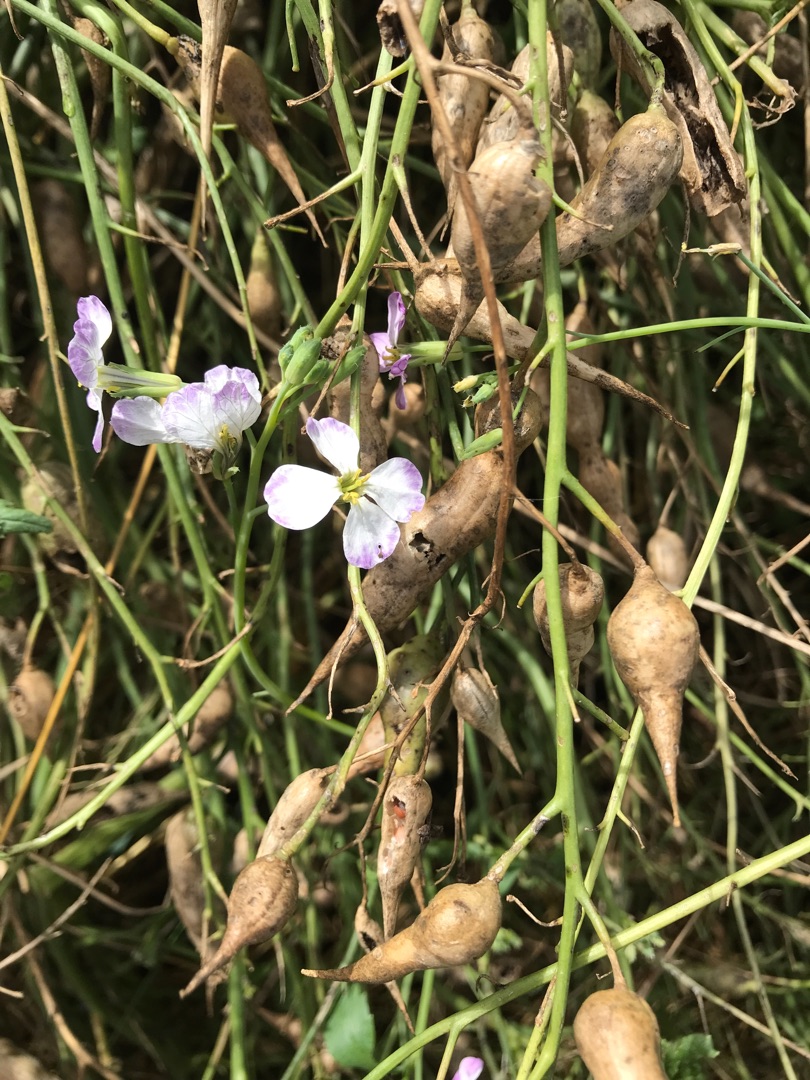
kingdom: Plantae
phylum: Tracheophyta
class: Magnoliopsida
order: Brassicales
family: Brassicaceae
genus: Raphanus
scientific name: Raphanus sativus
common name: Radise
